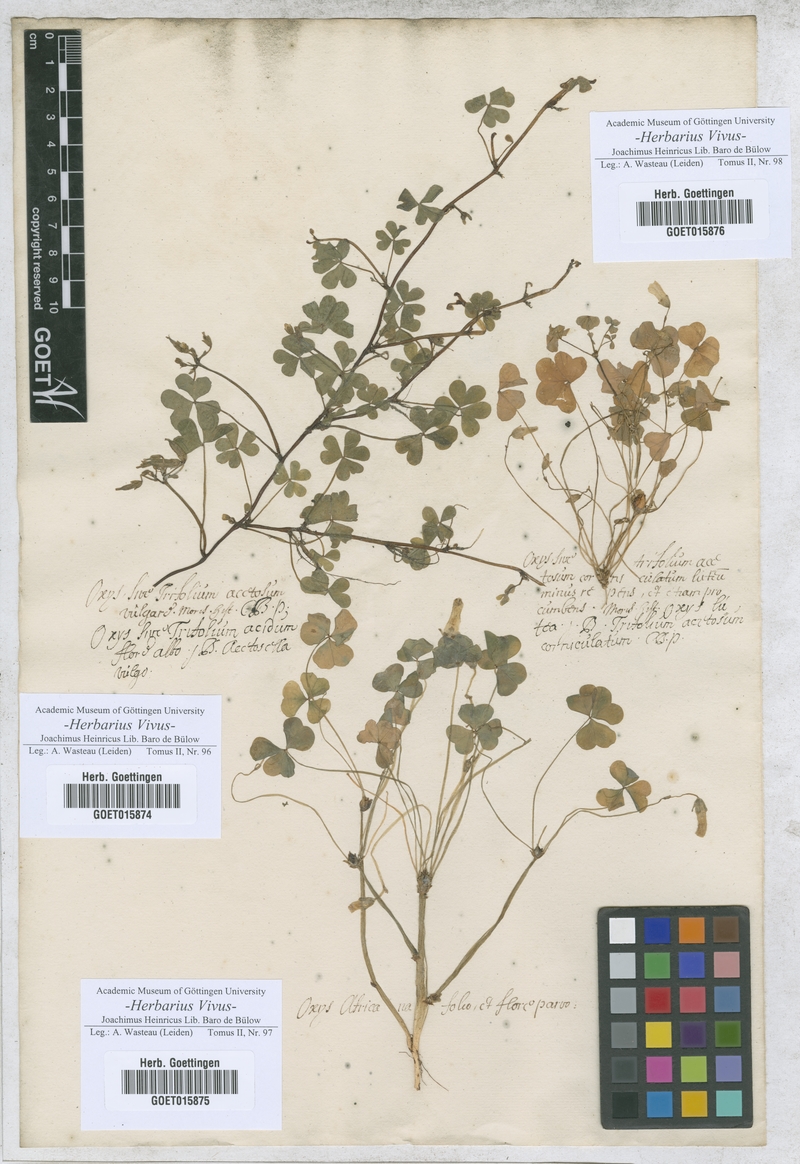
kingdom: Plantae
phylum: Tracheophyta
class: Magnoliopsida
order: Fabales
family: Fabaceae
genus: Trifolium
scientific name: Trifolium
